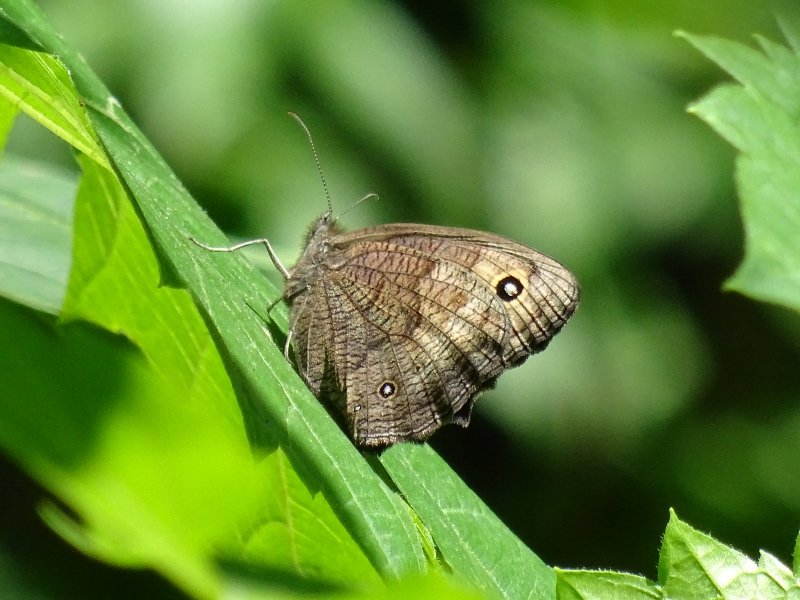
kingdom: Animalia
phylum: Arthropoda
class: Insecta
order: Lepidoptera
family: Nymphalidae
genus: Cercyonis
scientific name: Cercyonis pegala
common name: Common Wood-Nymph
